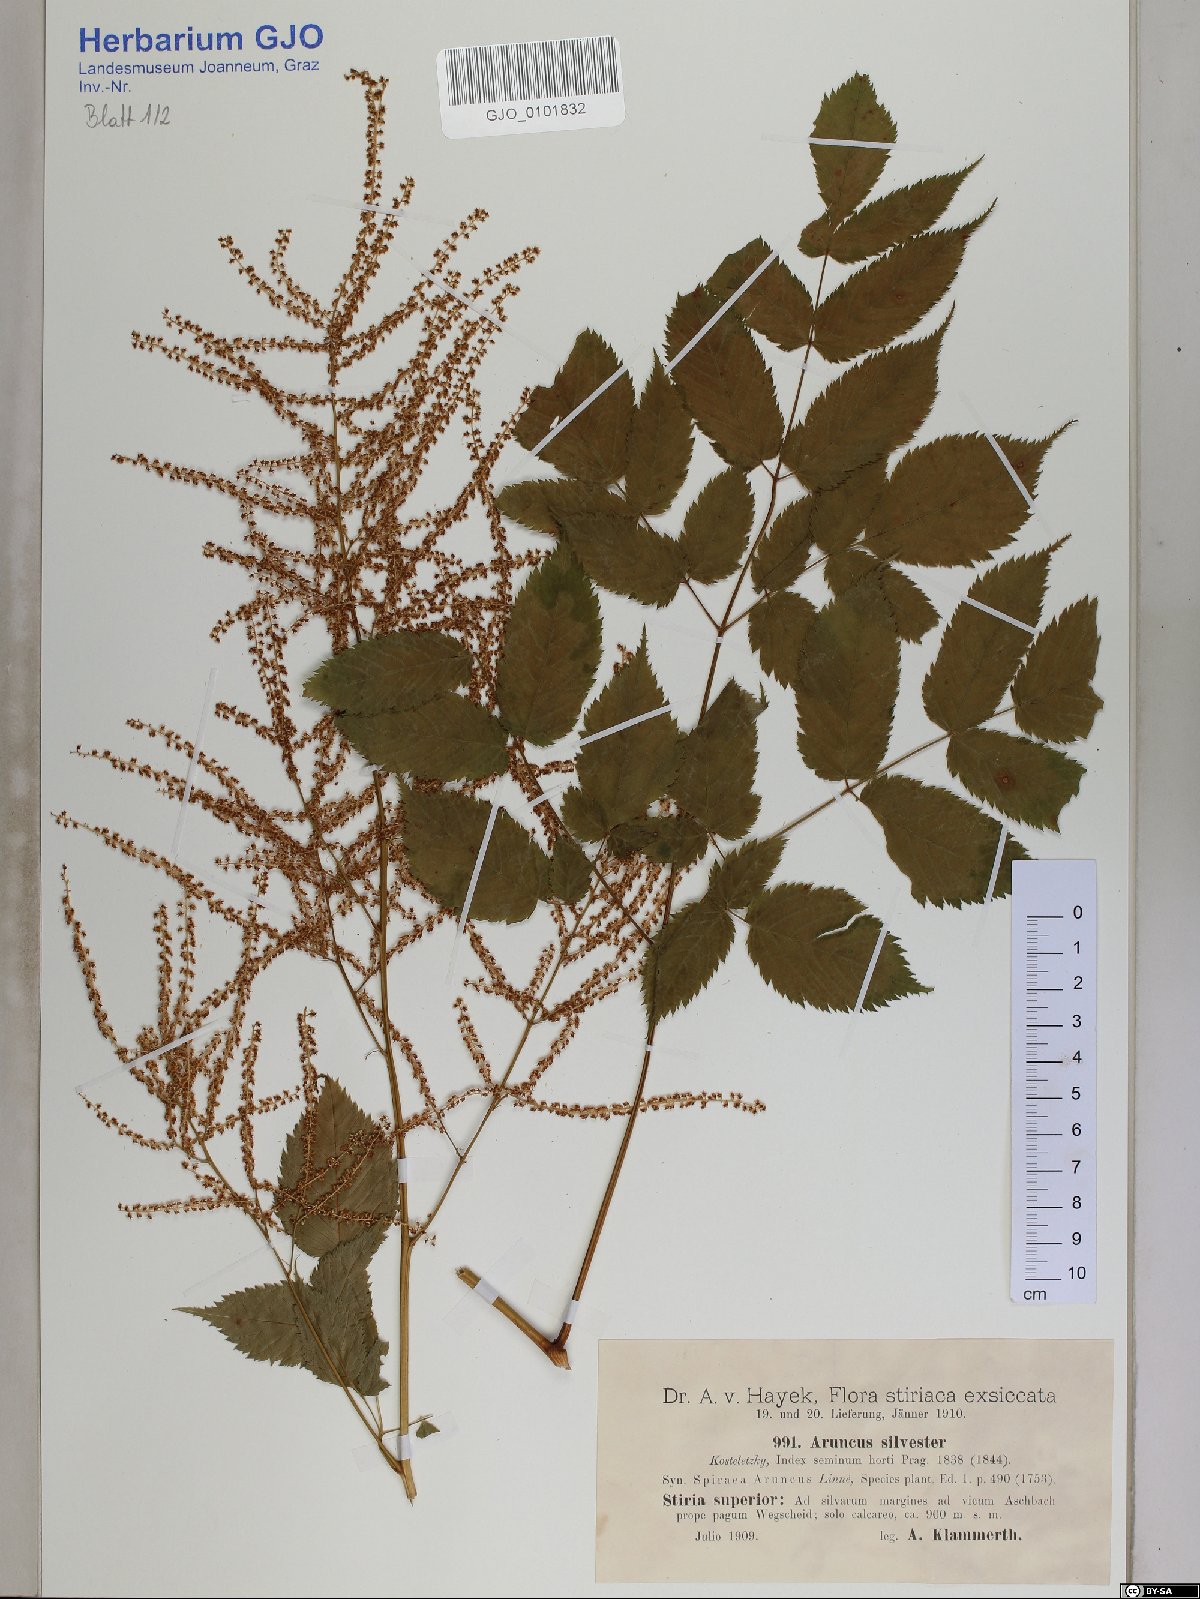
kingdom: Plantae
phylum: Tracheophyta
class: Magnoliopsida
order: Rosales
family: Rosaceae
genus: Aruncus
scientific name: Aruncus sylvester
